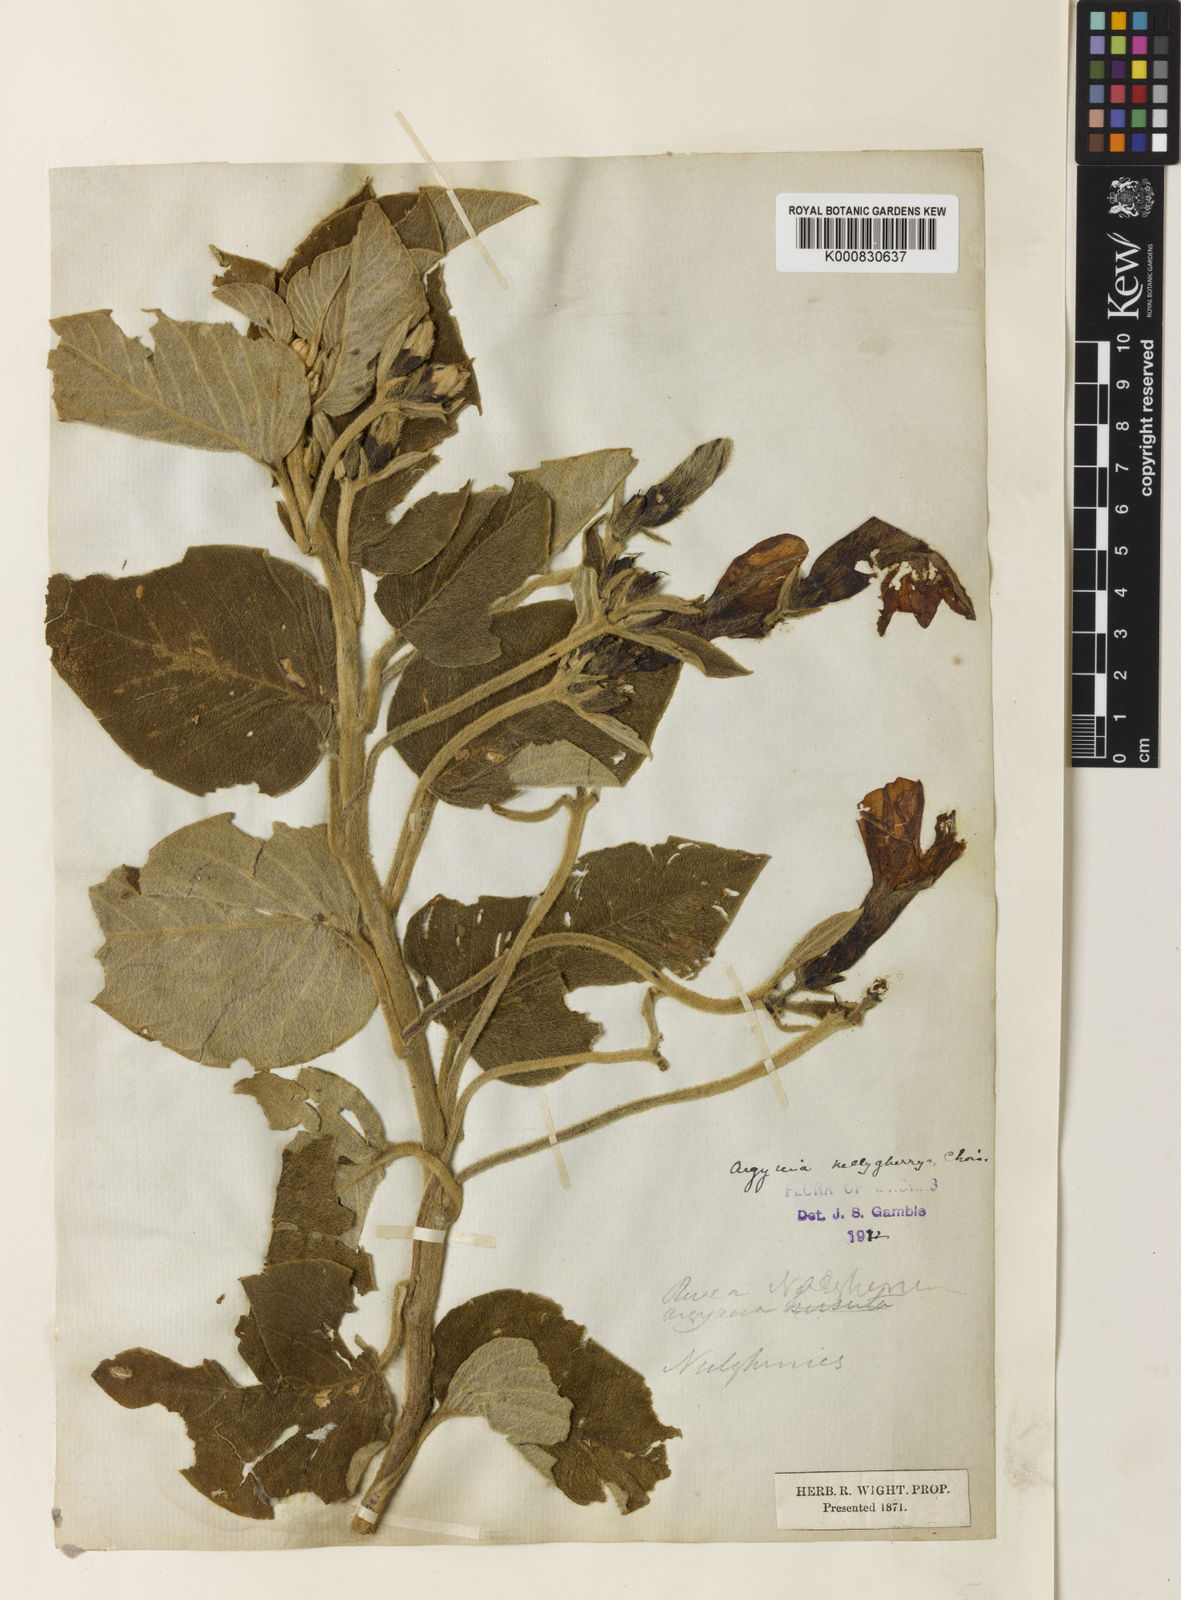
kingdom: Plantae
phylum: Tracheophyta
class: Magnoliopsida
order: Solanales
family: Convolvulaceae
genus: Argyreia
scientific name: Argyreia nellygherya
